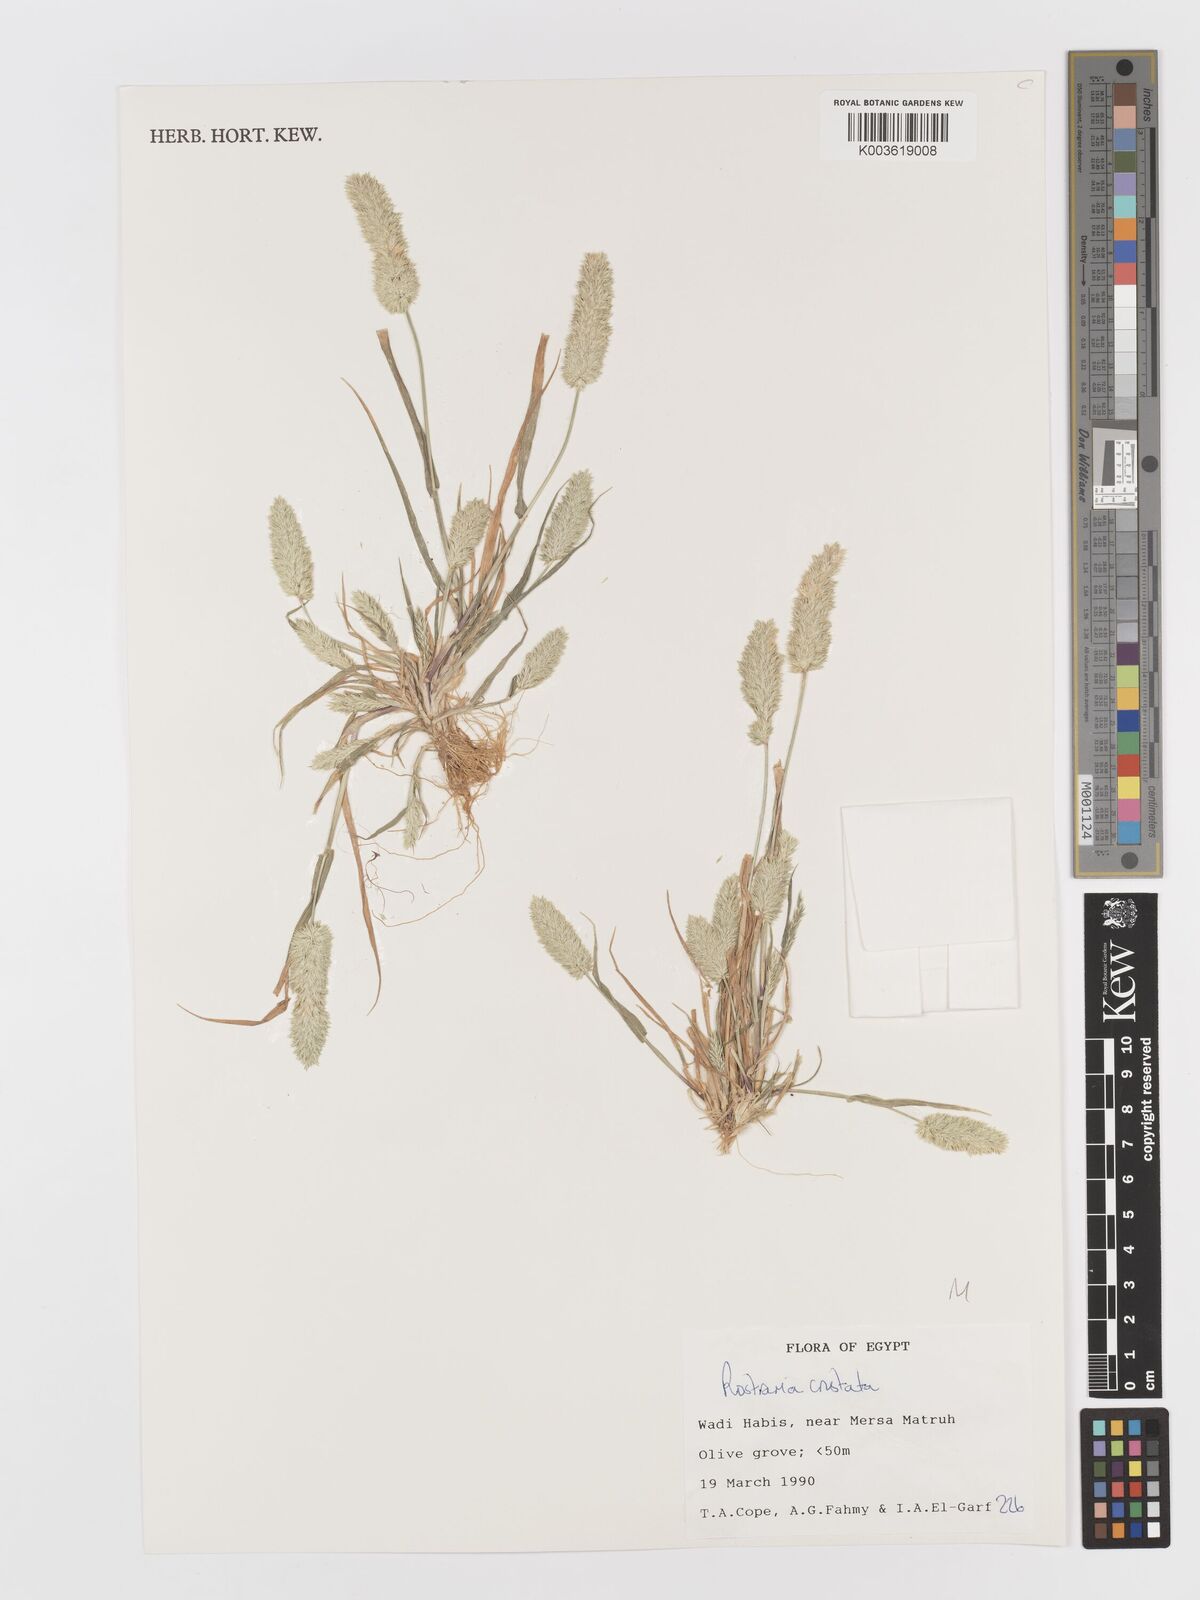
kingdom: Plantae
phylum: Tracheophyta
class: Liliopsida
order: Poales
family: Poaceae
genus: Rostraria
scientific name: Rostraria cristata
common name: Mediterranean hair-grass
